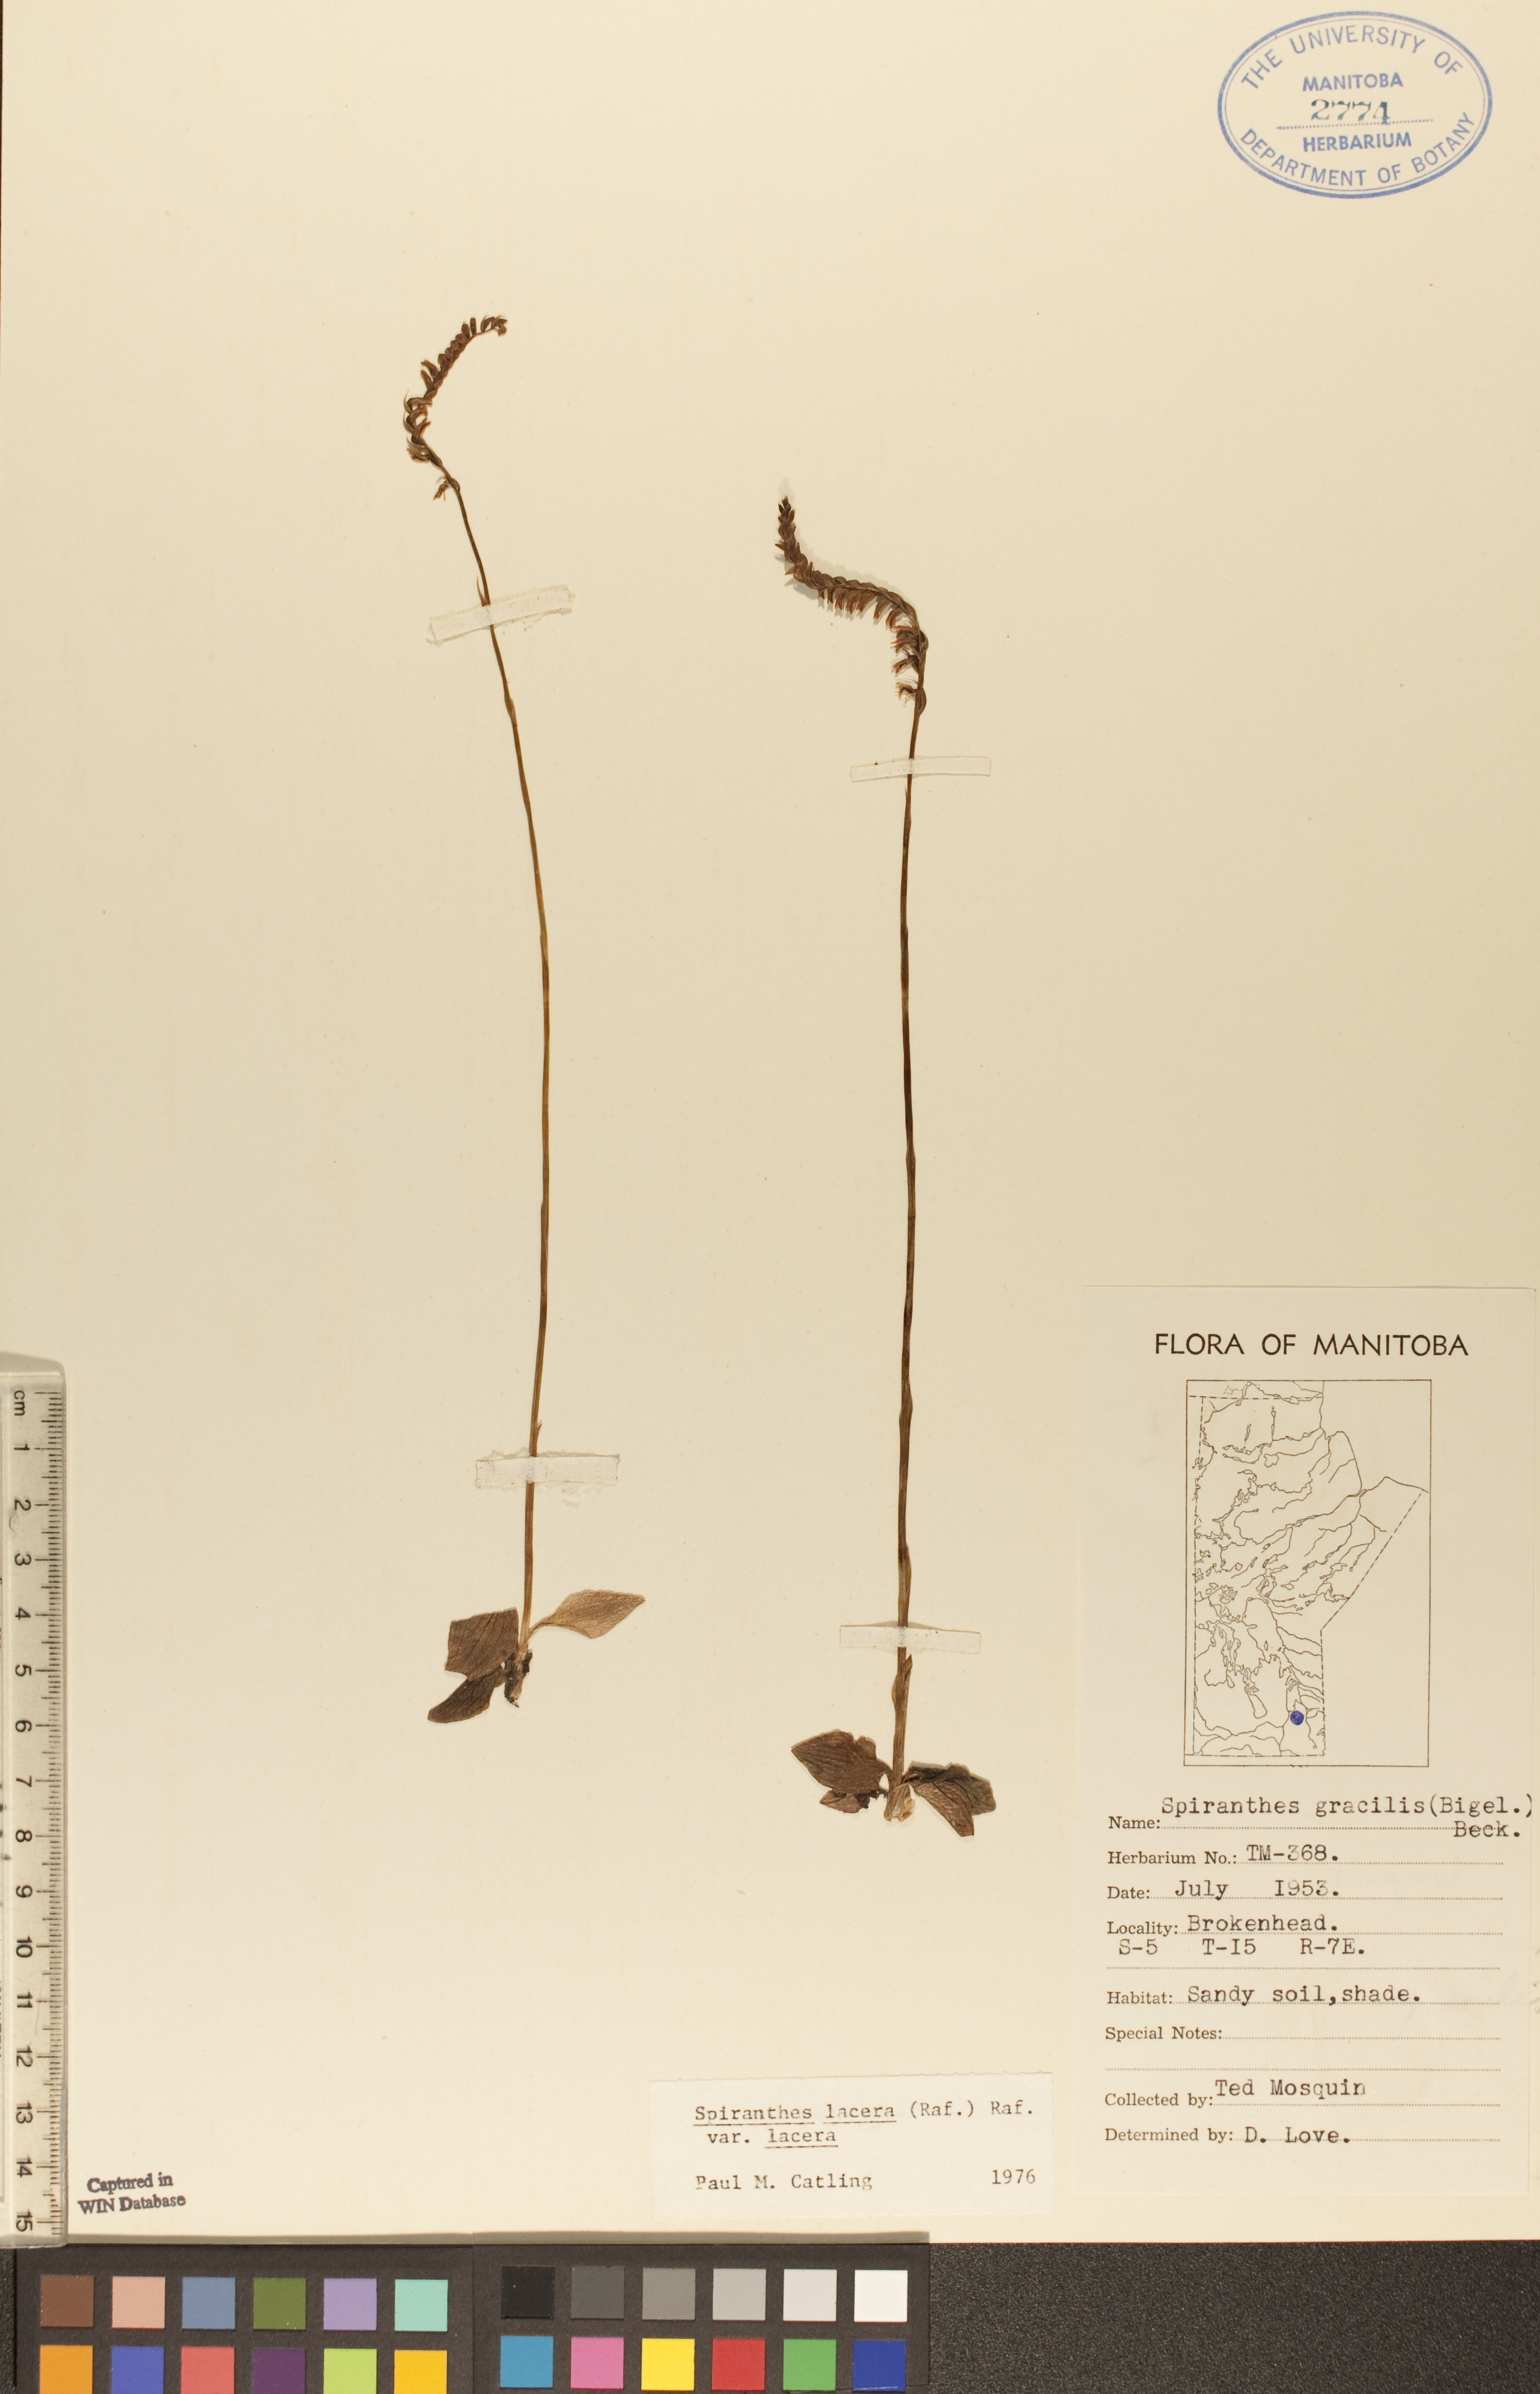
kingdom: Plantae
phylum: Tracheophyta
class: Liliopsida
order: Asparagales
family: Orchidaceae
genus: Spiranthes
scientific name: Spiranthes lacera
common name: Northern slender ladies'-tresses
